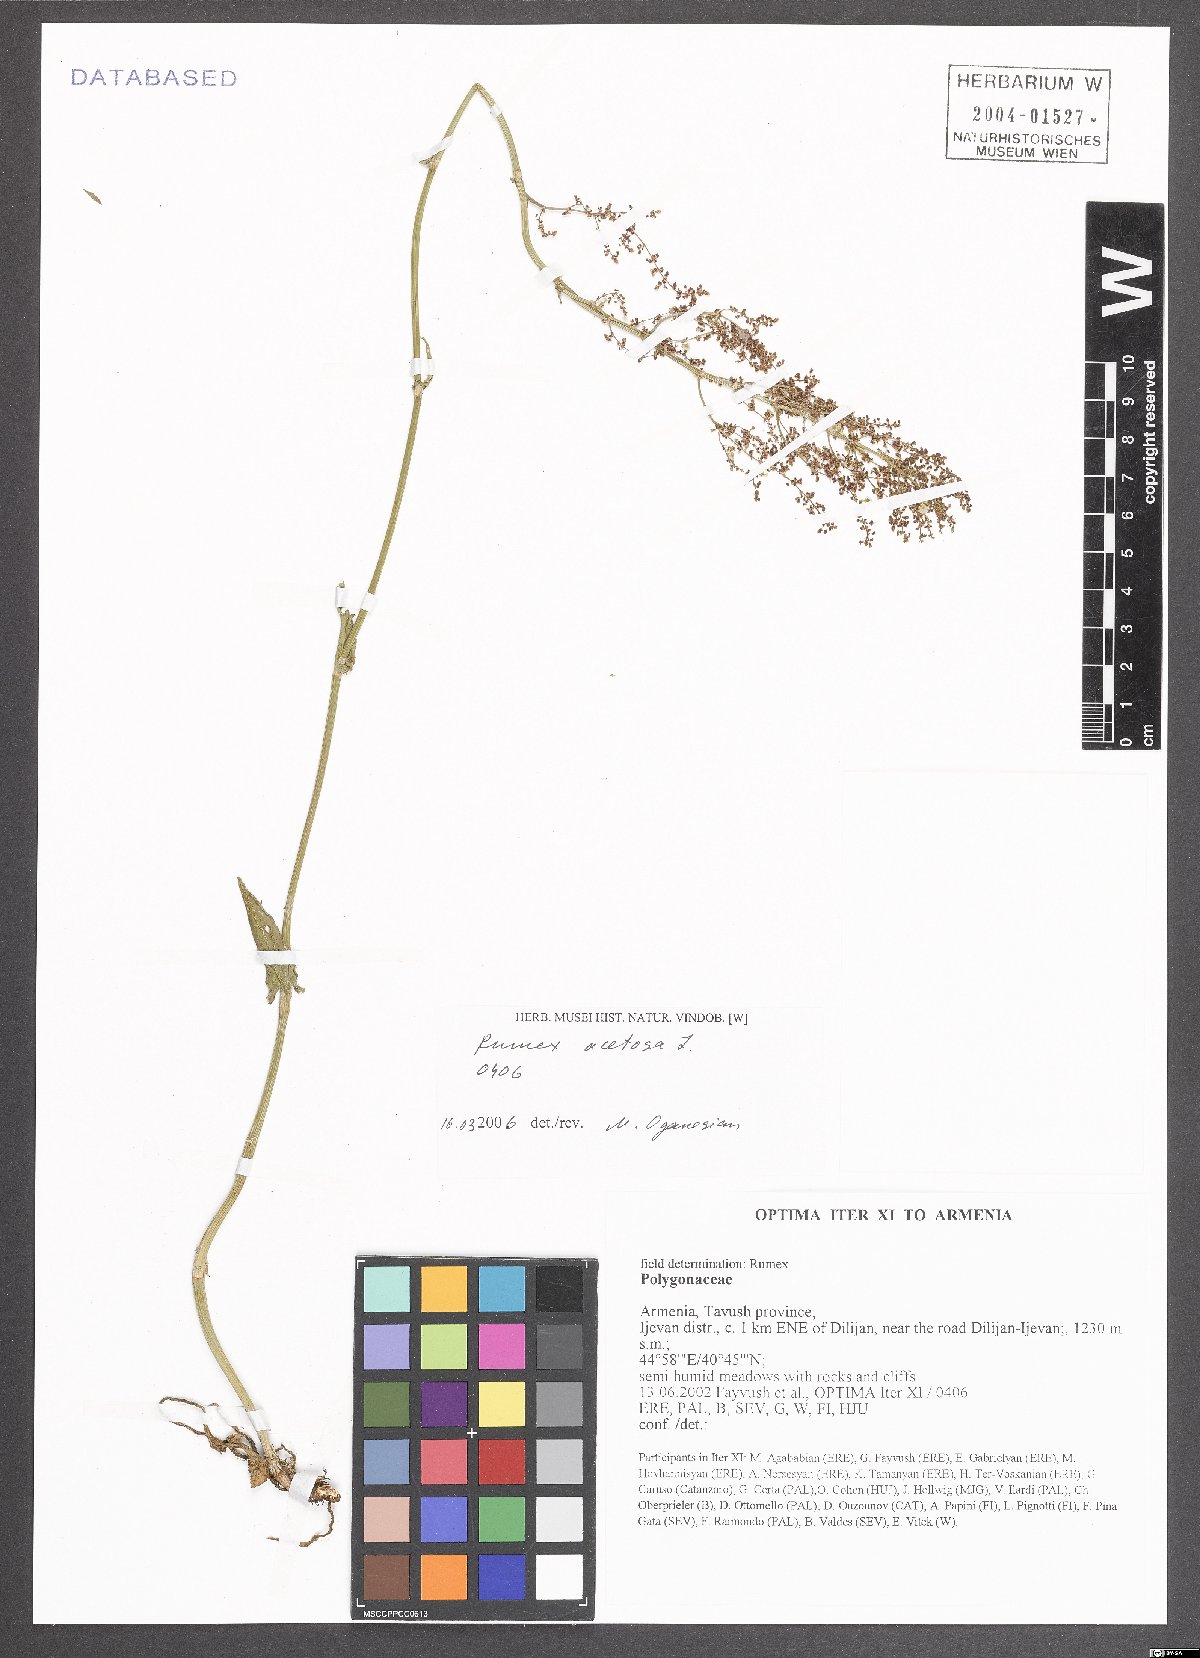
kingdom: Plantae
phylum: Tracheophyta
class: Magnoliopsida
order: Caryophyllales
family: Polygonaceae
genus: Rumex
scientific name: Rumex acetosa
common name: Garden sorrel
